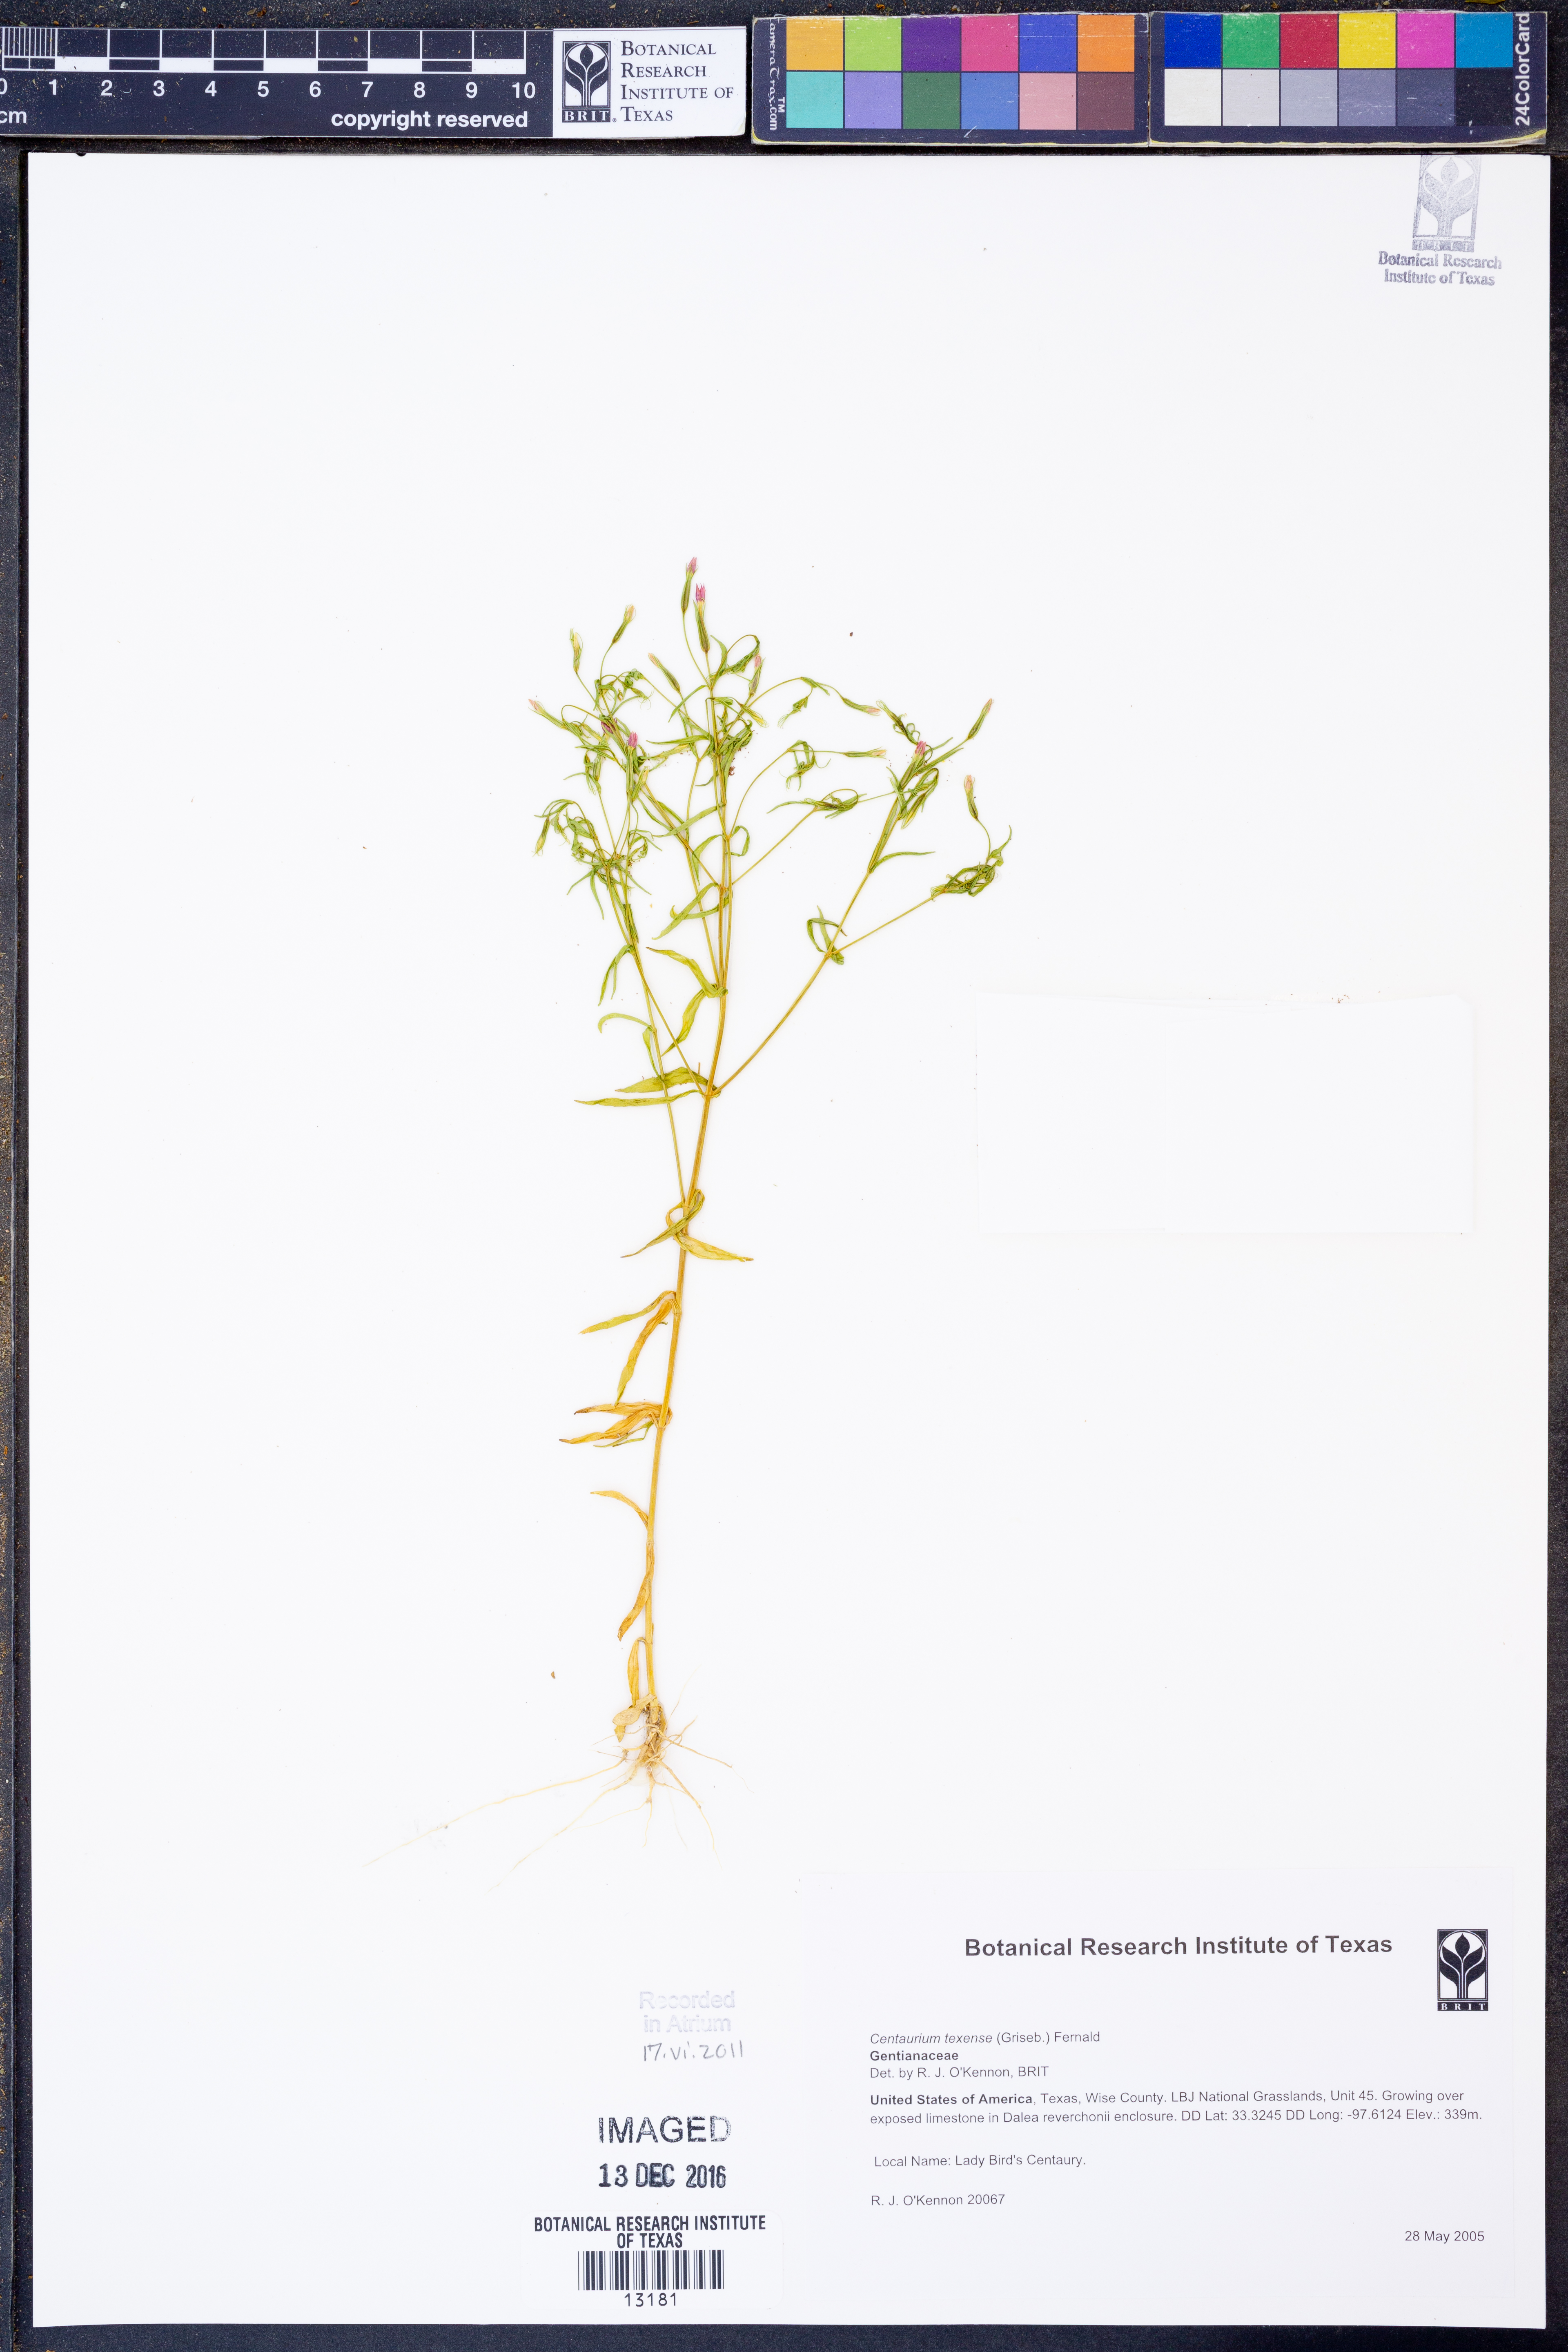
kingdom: Plantae
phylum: Tracheophyta
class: Magnoliopsida
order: Gentianales
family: Gentianaceae
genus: Zeltnera
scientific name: Zeltnera texensis
